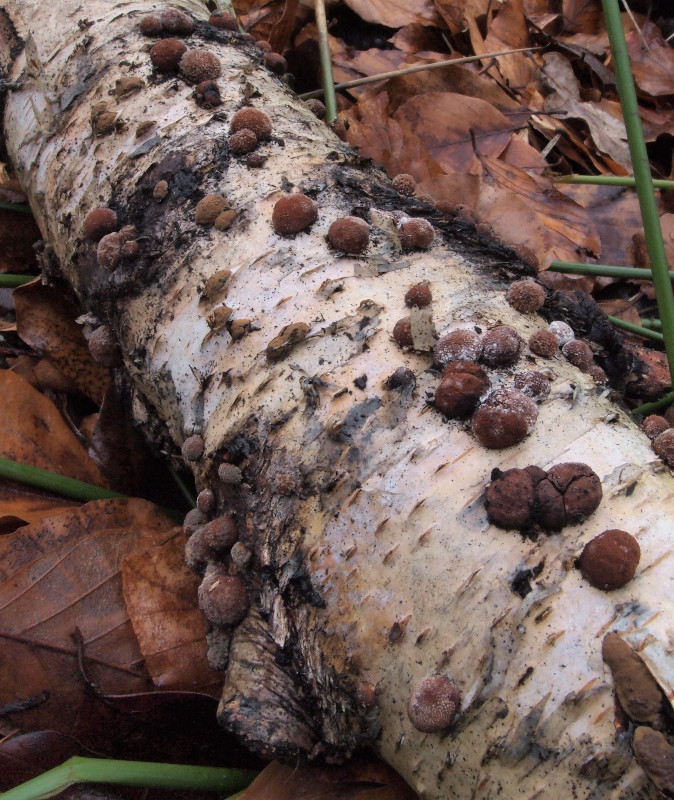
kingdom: Fungi
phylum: Ascomycota
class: Sordariomycetes
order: Xylariales
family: Hypoxylaceae
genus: Hypoxylon
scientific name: Hypoxylon fragiforme
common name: kuljordbær
